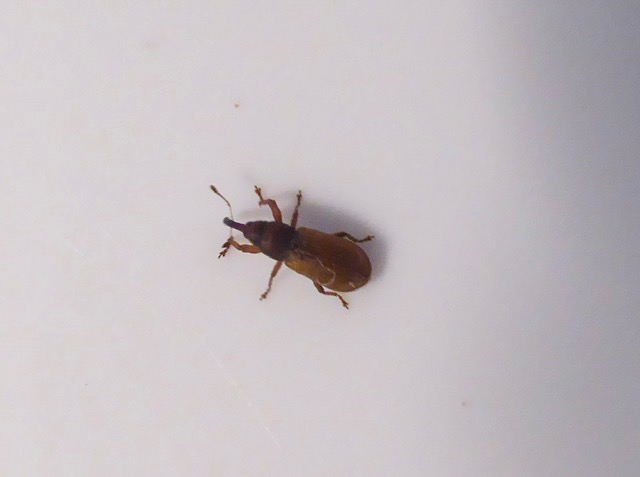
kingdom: Animalia
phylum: Arthropoda
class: Insecta
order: Coleoptera
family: Curculionidae
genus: Magdalis
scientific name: Magdalis rufa
